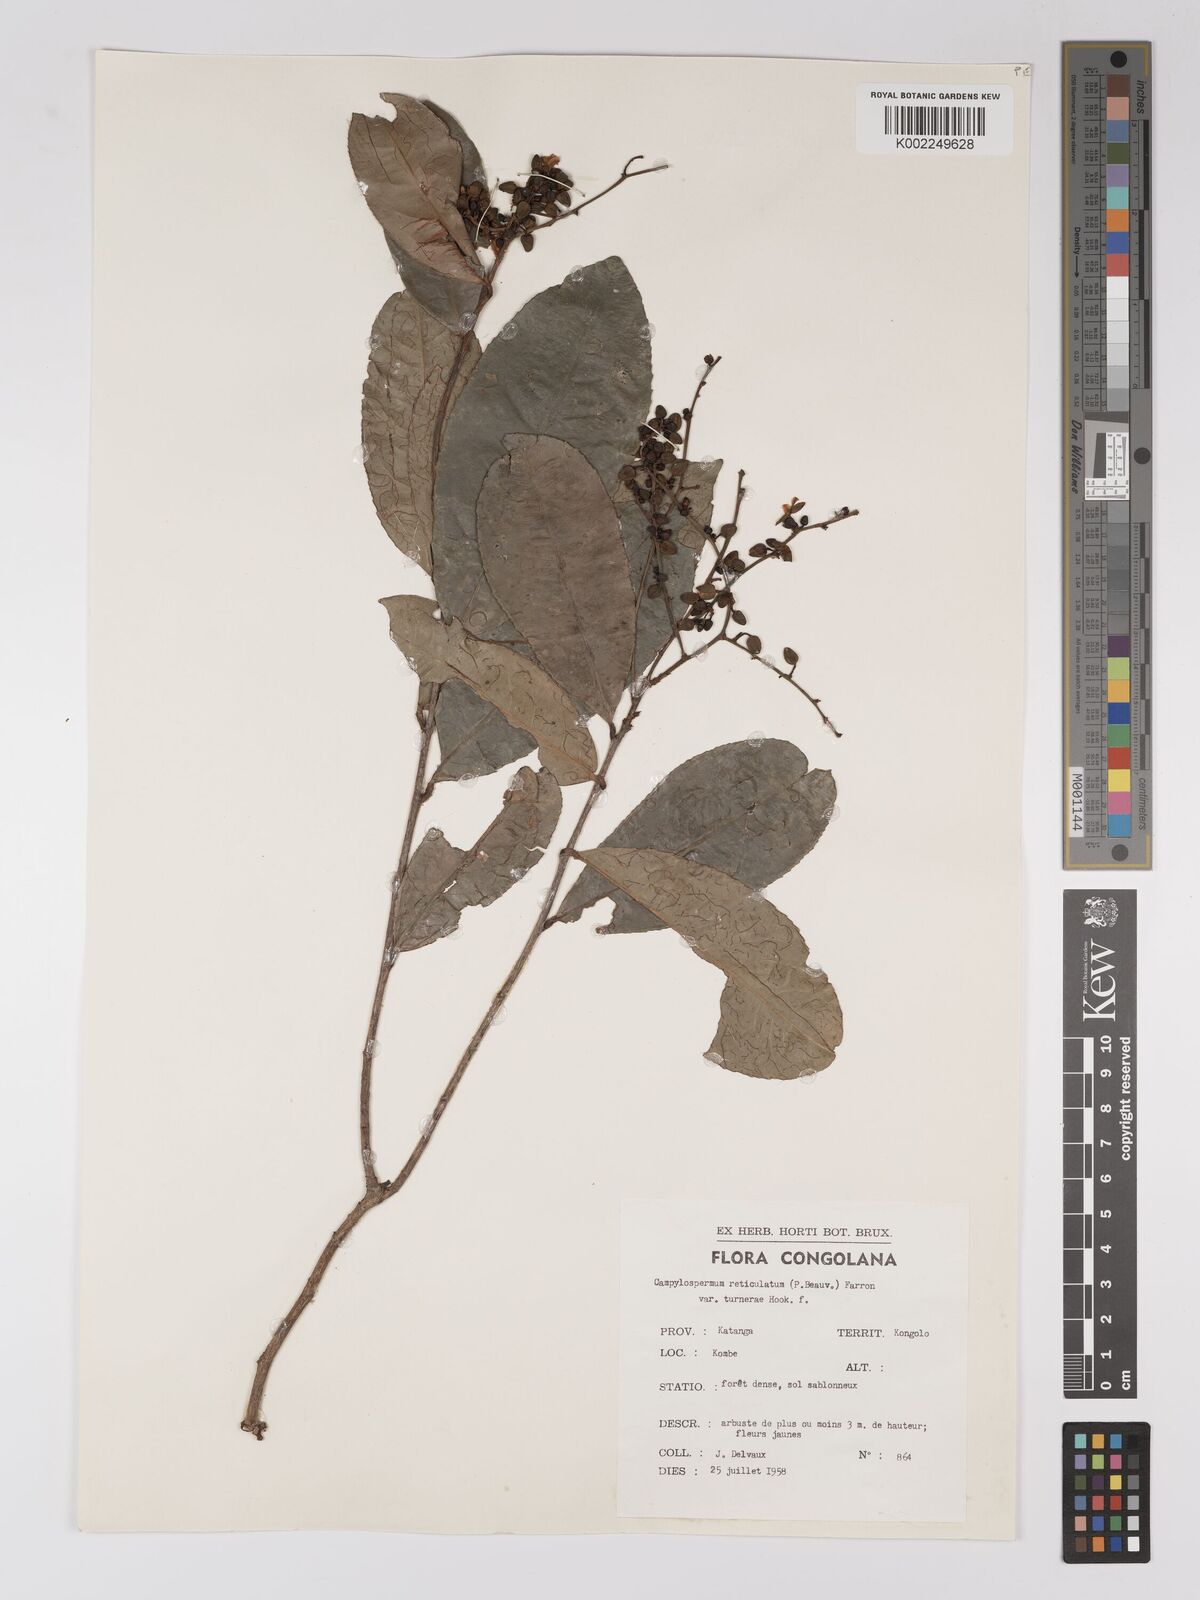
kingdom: Plantae
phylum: Tracheophyta
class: Magnoliopsida
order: Malpighiales
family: Ochnaceae
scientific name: Ochnaceae
